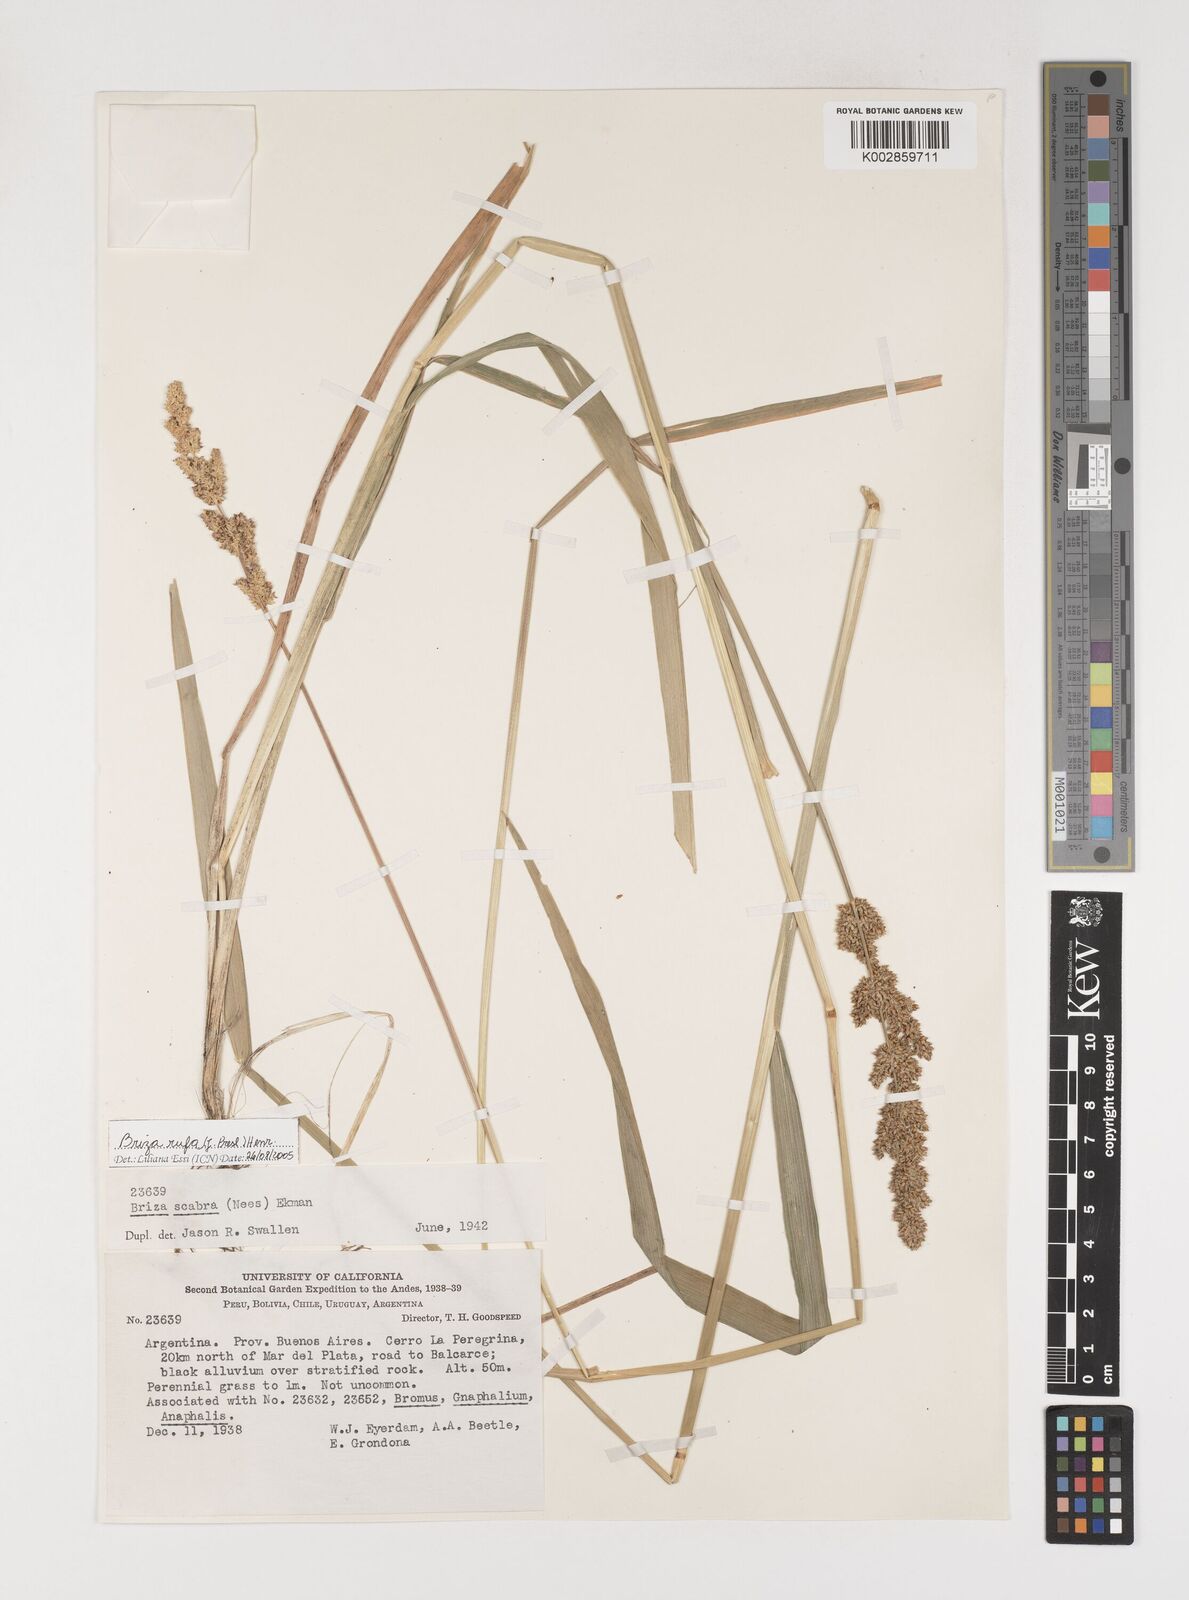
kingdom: Plantae
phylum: Tracheophyta
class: Liliopsida
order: Poales
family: Poaceae
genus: Lombardochloa
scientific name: Lombardochloa rufa
